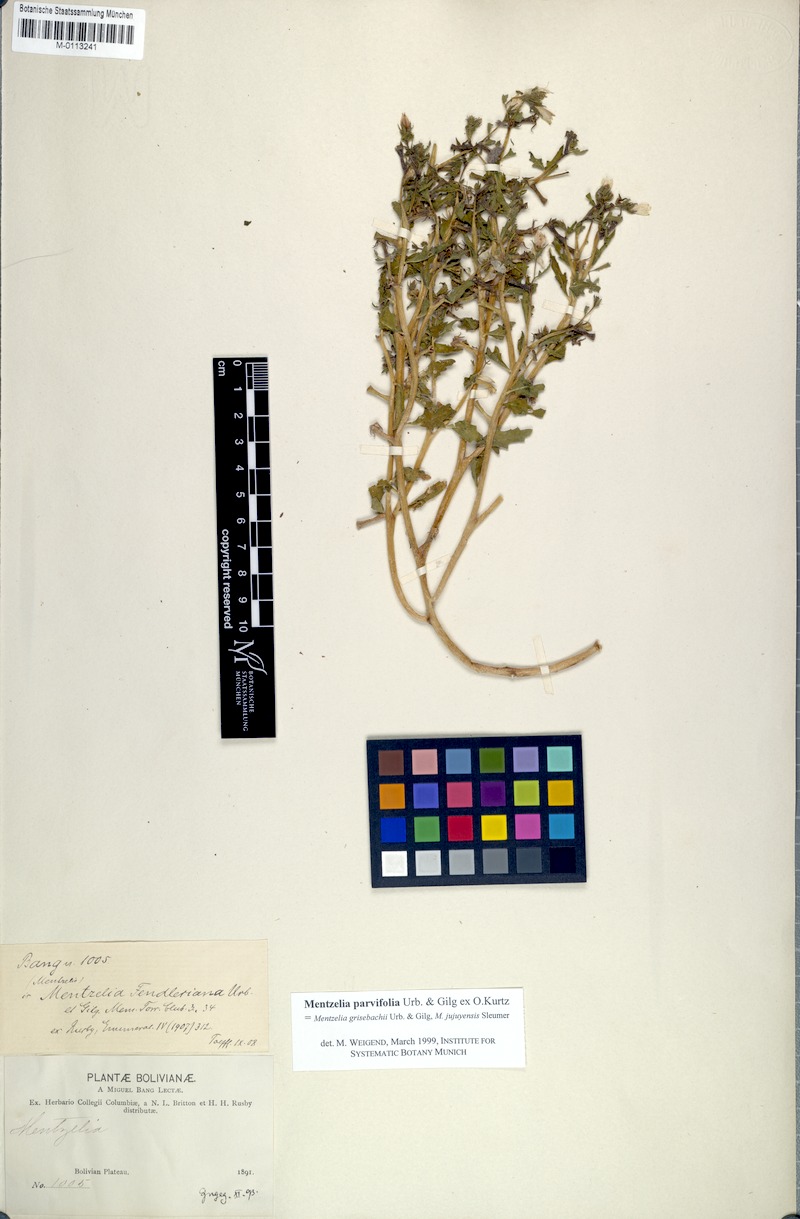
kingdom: Plantae
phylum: Tracheophyta
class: Magnoliopsida
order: Cornales
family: Loasaceae
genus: Mentzelia
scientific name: Mentzelia parvifolia
